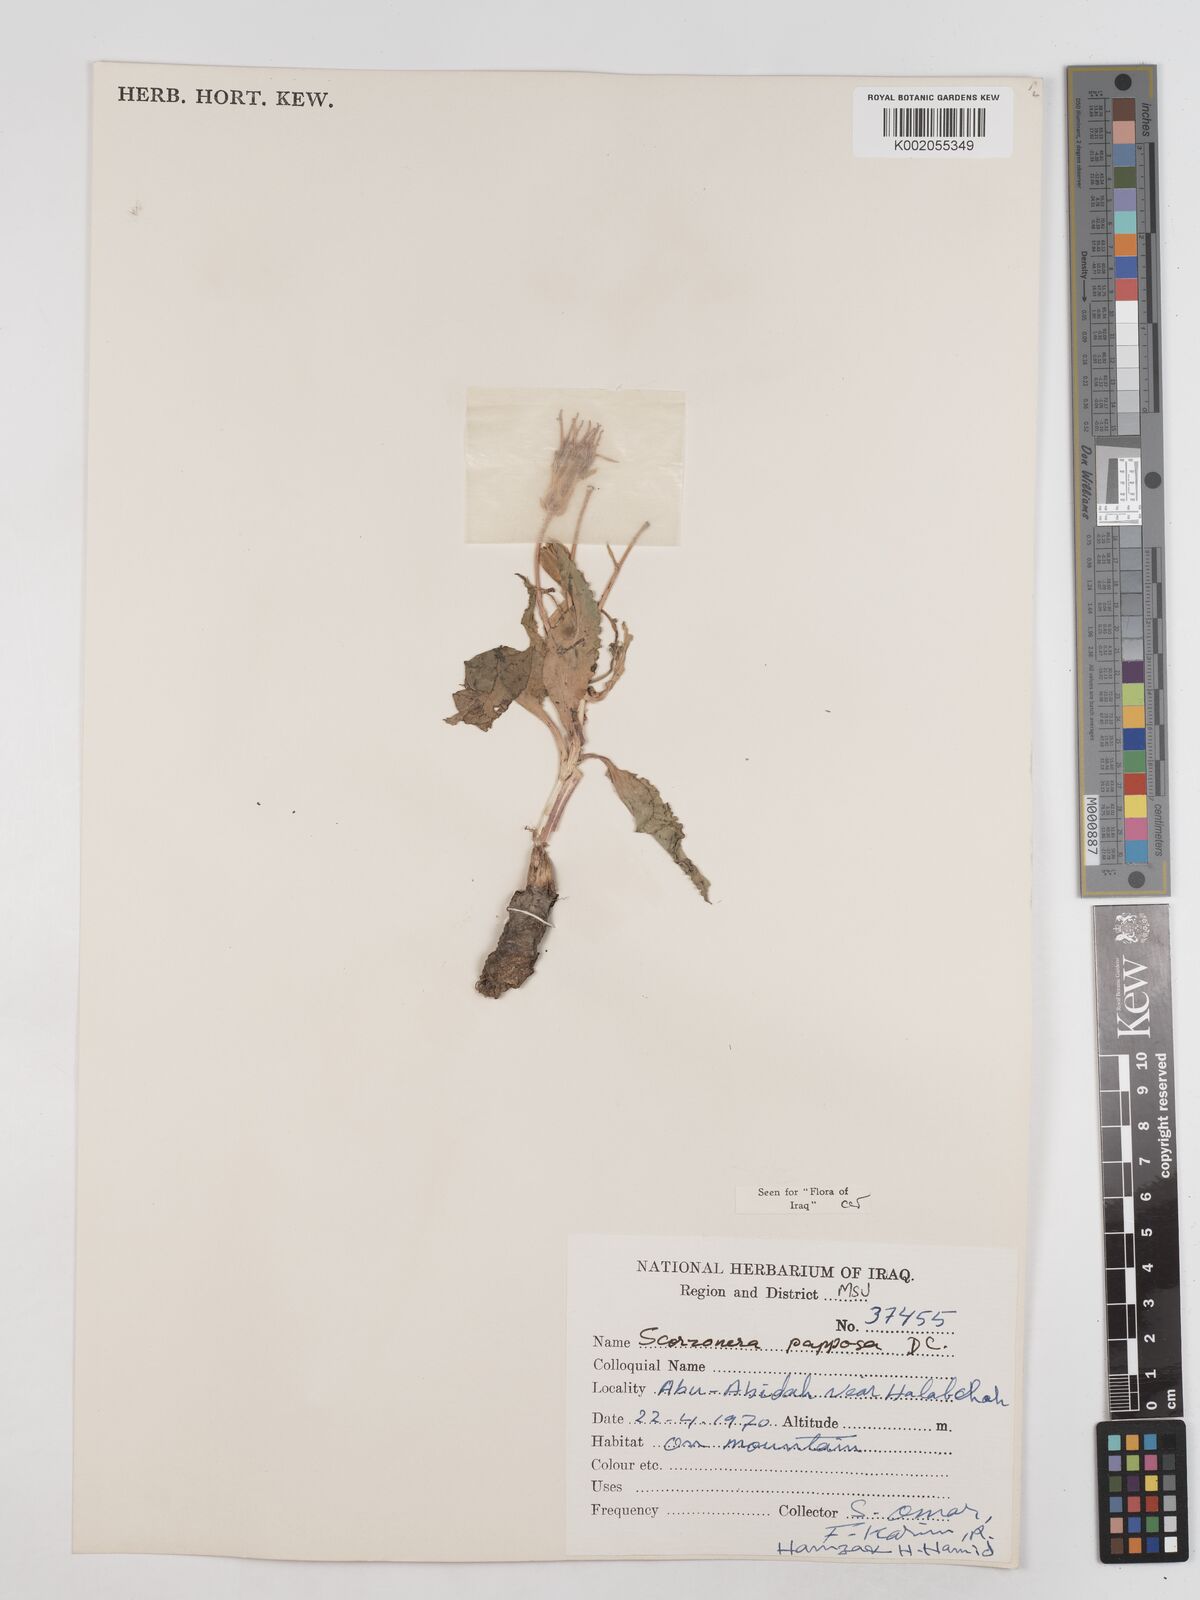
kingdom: Plantae
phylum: Tracheophyta
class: Magnoliopsida
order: Asterales
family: Asteraceae
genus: Pseudopodospermum
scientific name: Pseudopodospermum papposum
